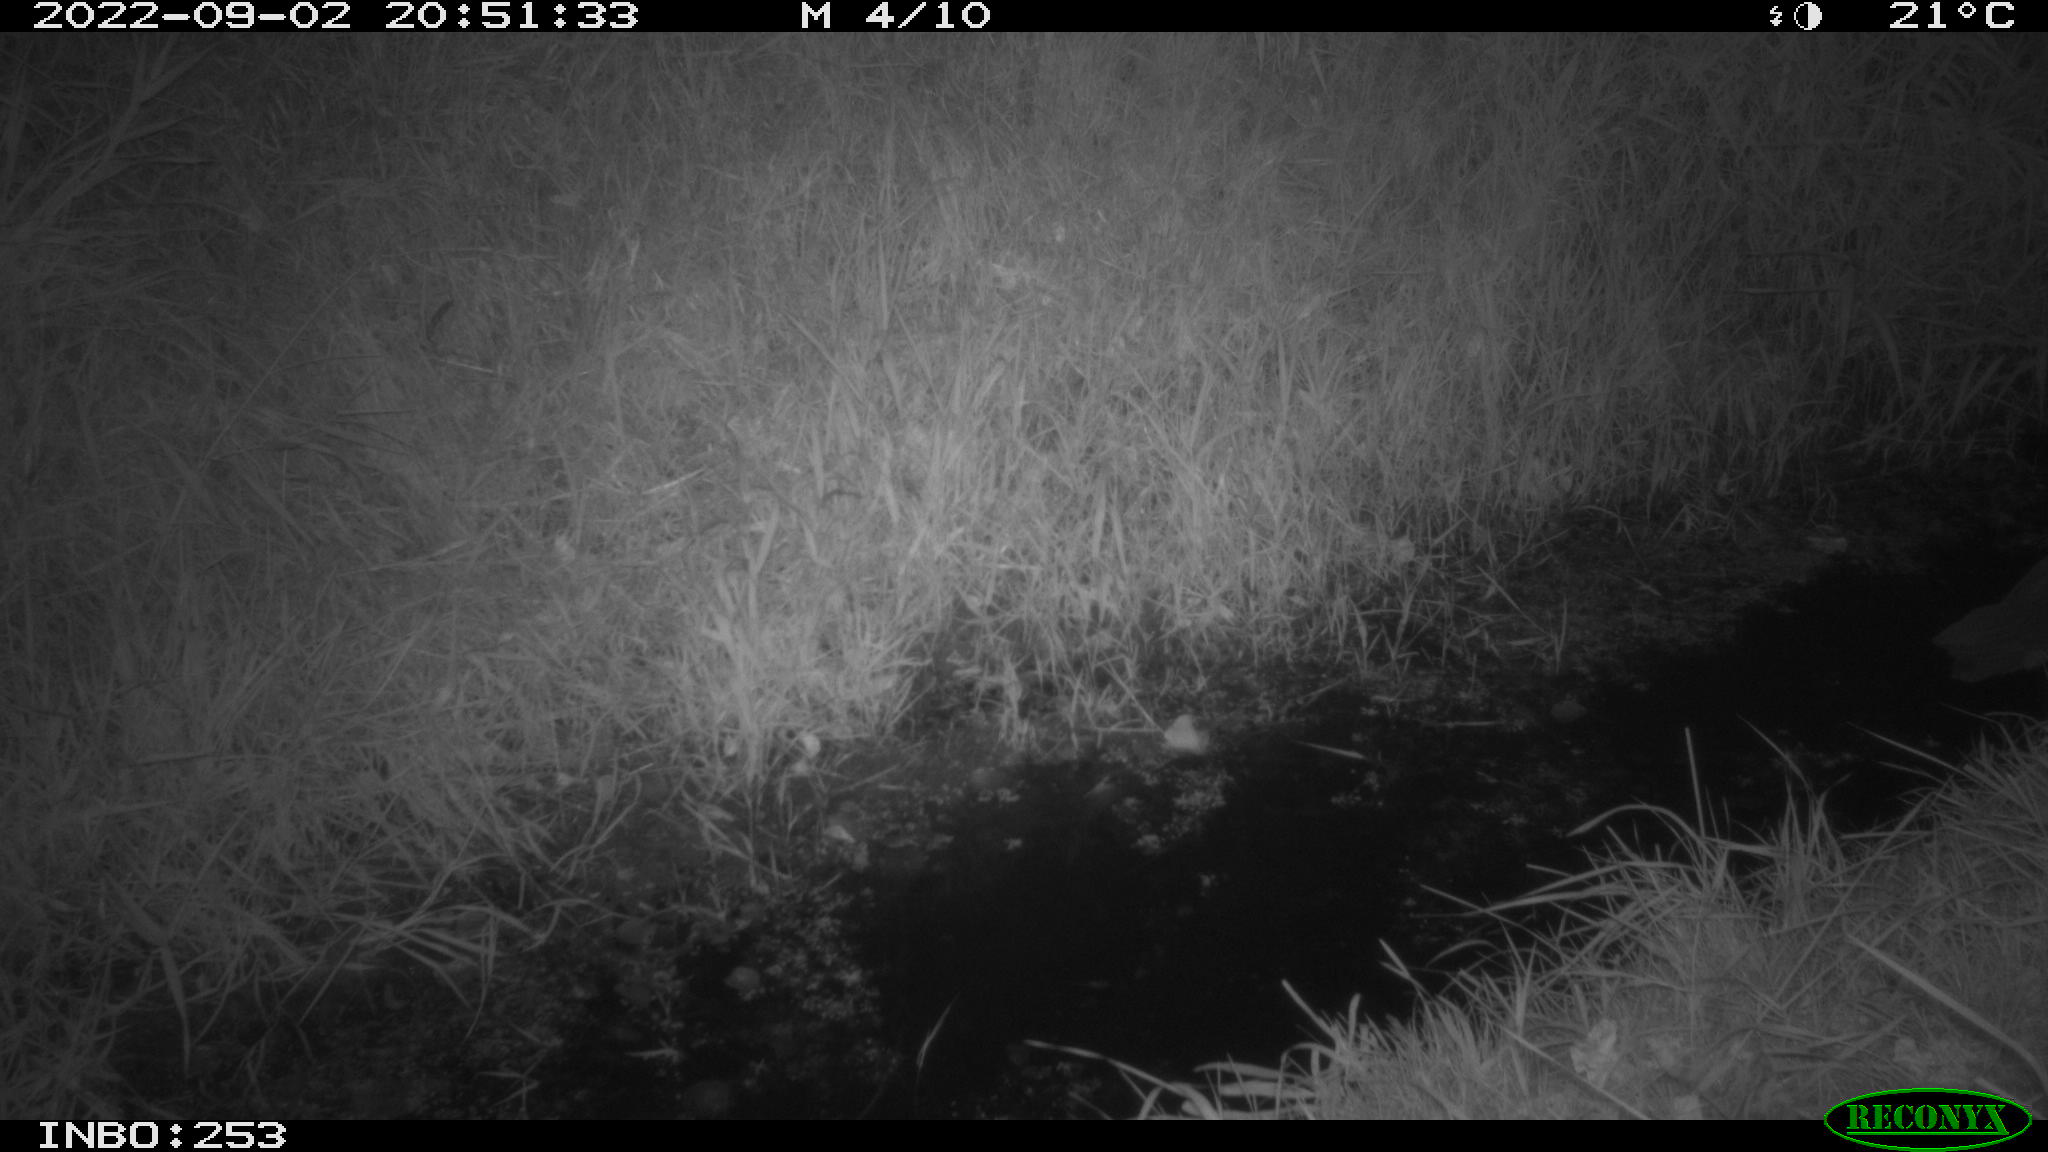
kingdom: Animalia
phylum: Chordata
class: Aves
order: Pelecaniformes
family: Ardeidae
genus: Ardea
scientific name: Ardea
